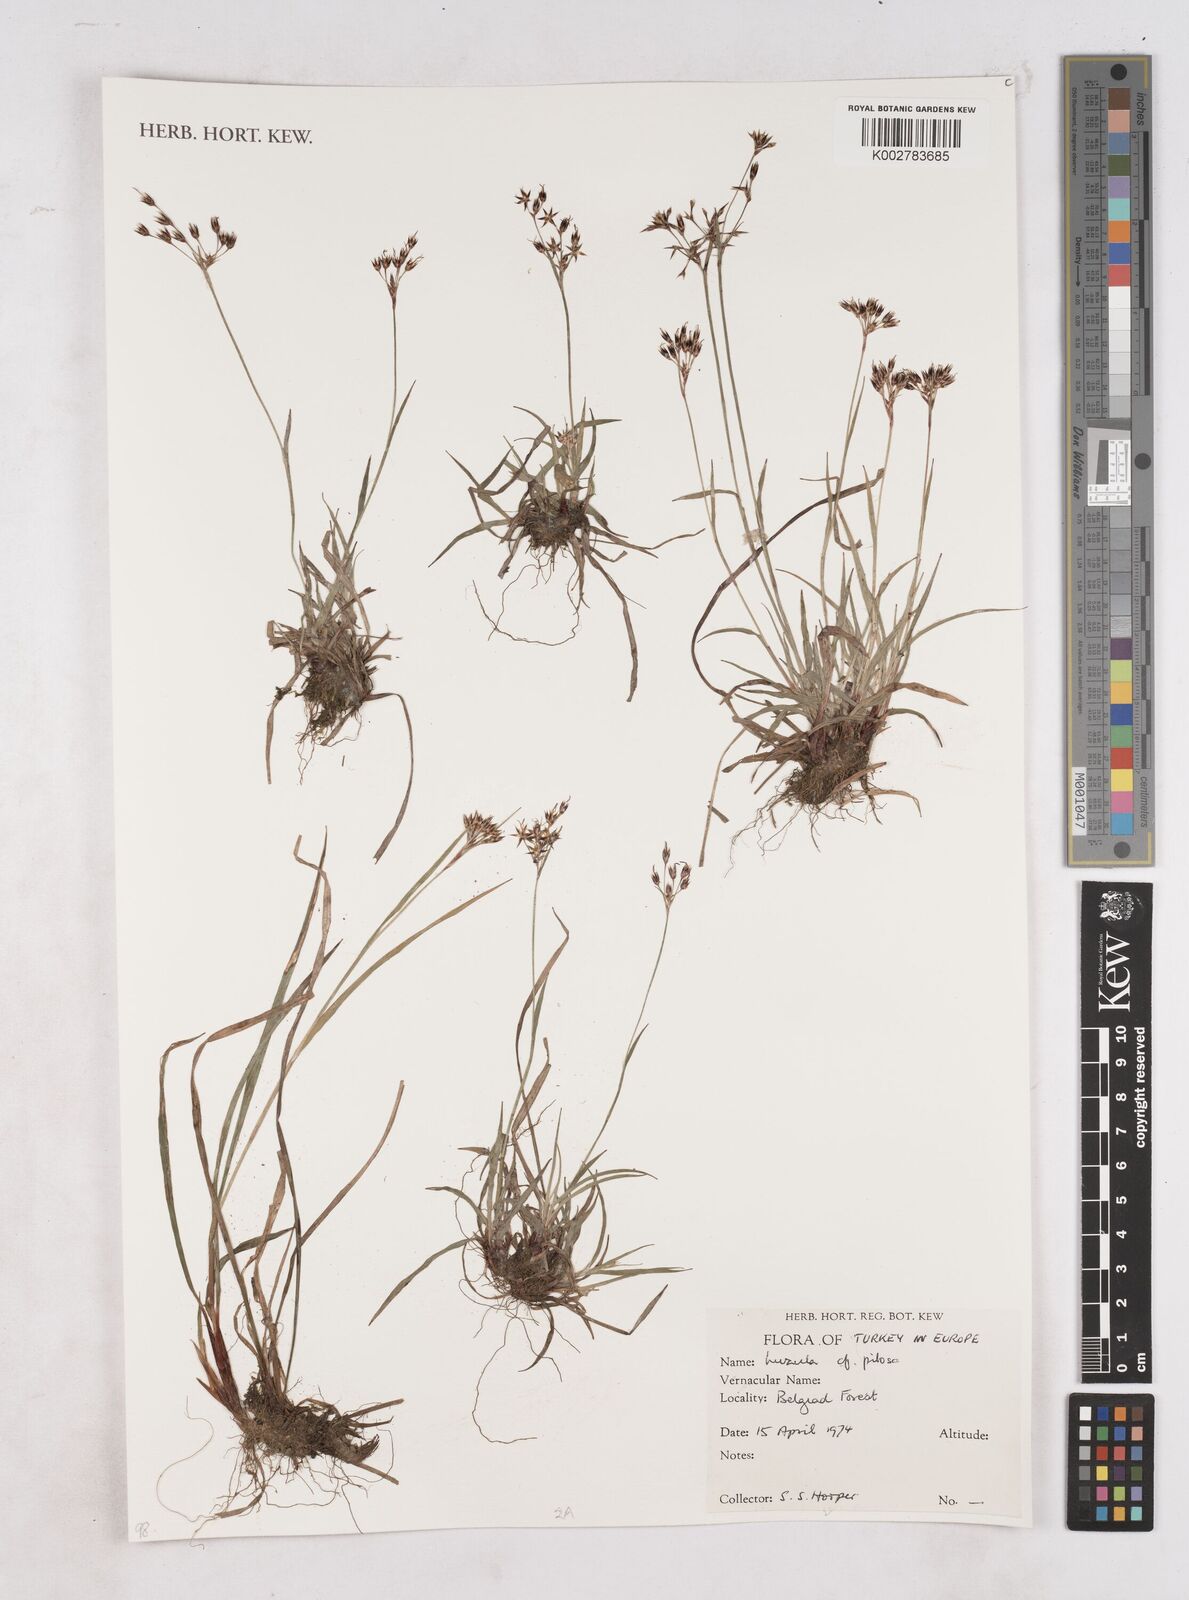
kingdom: Plantae
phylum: Tracheophyta
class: Liliopsida
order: Poales
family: Juncaceae
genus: Luzula
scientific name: Luzula
